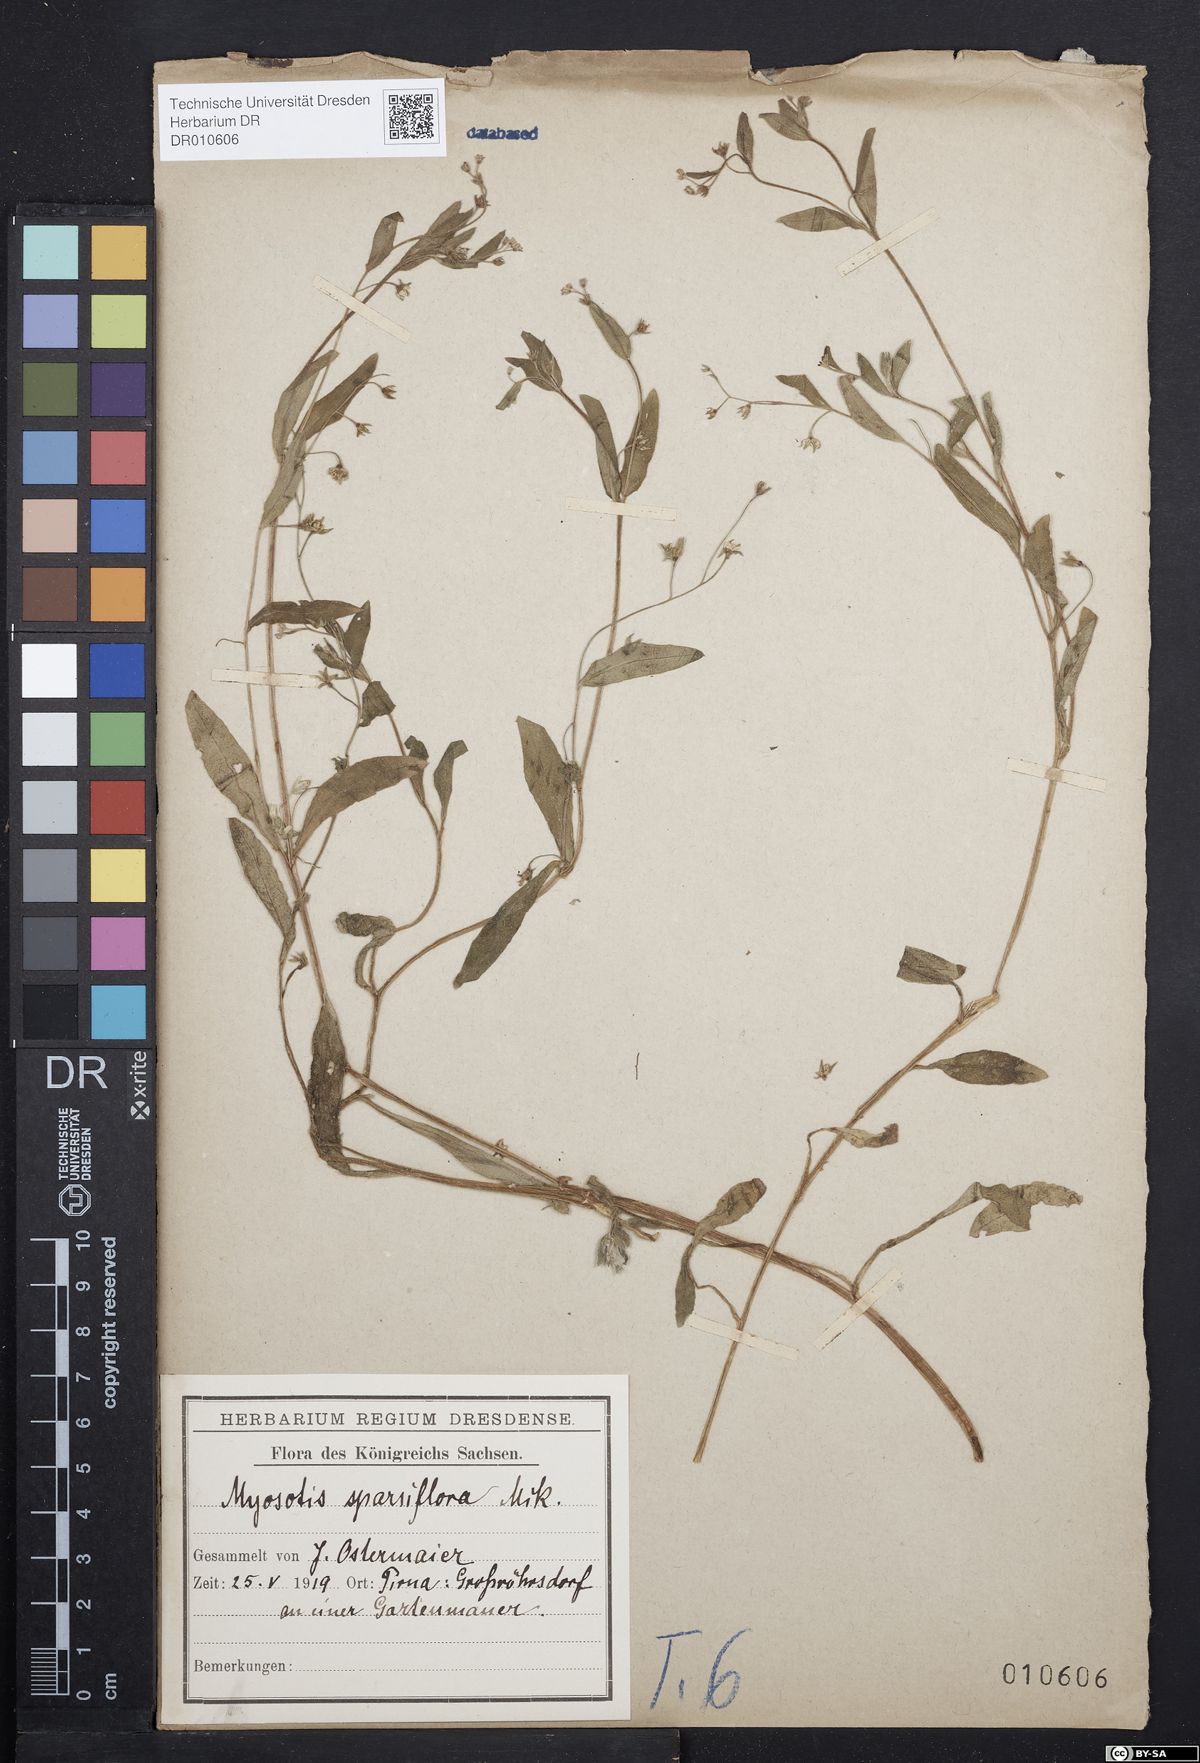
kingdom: Plantae
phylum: Tracheophyta
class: Magnoliopsida
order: Boraginales
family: Boraginaceae
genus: Myosotis
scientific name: Myosotis sparsiflora
